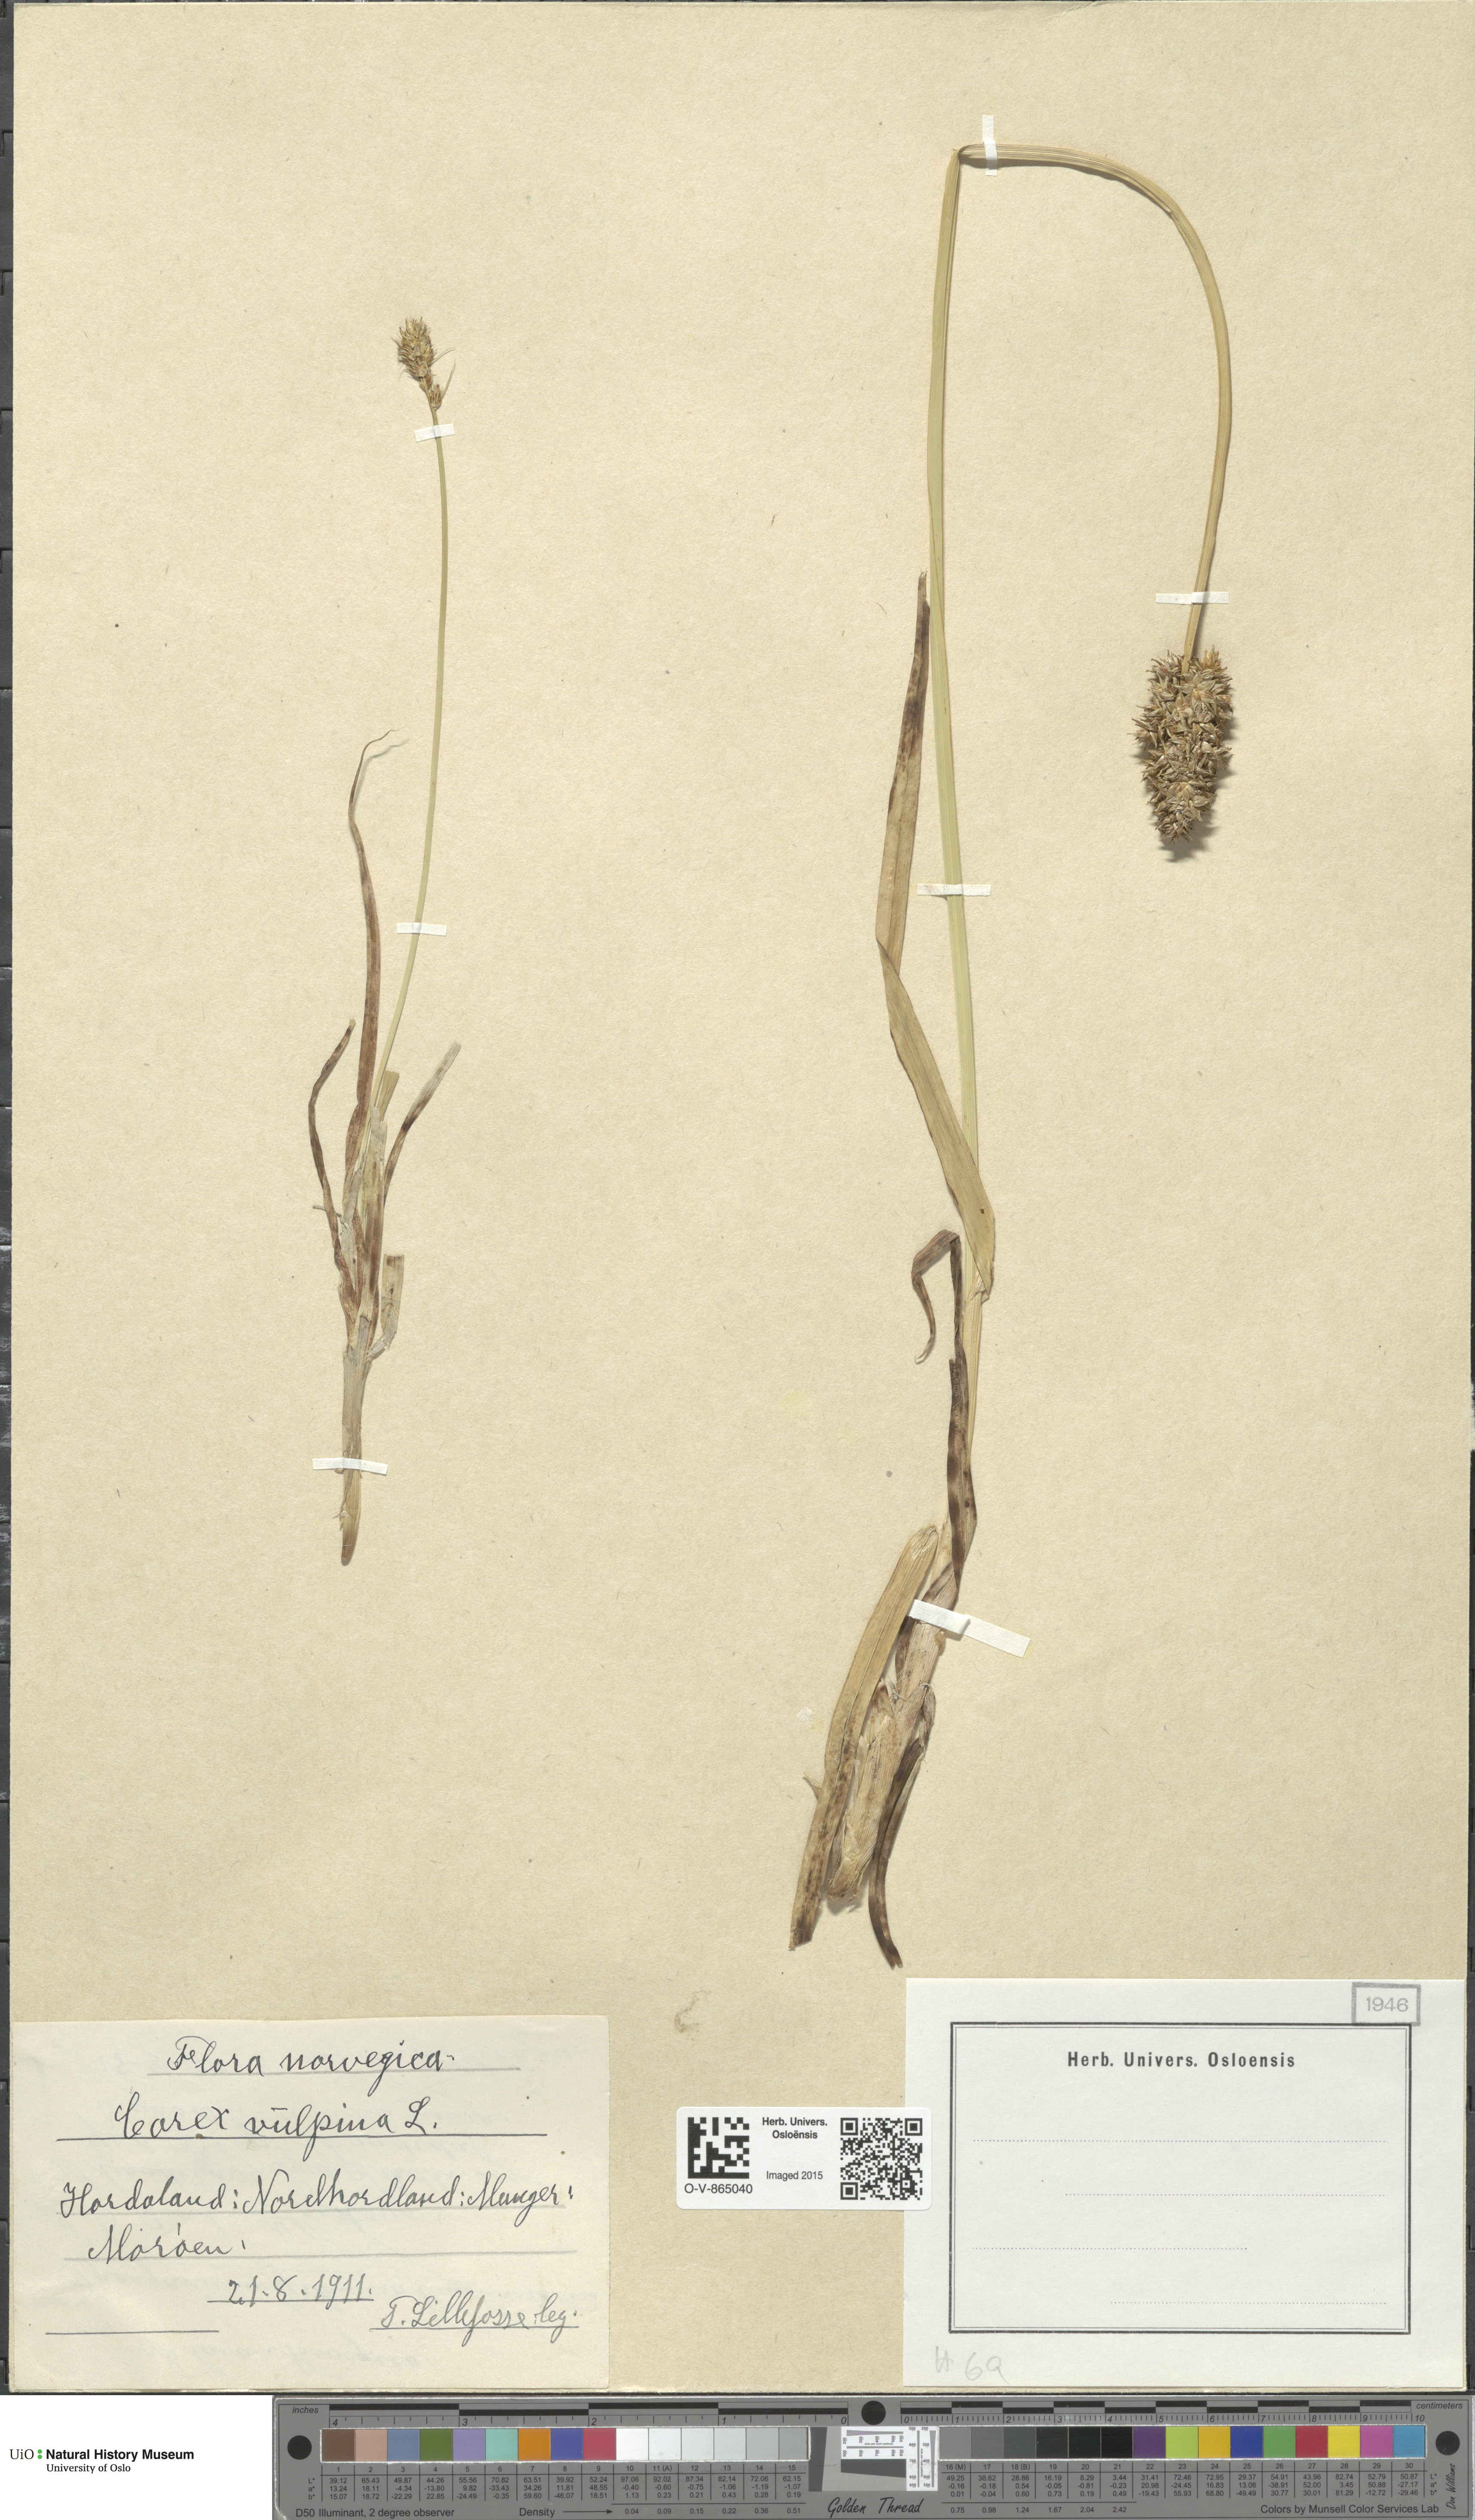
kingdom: Plantae
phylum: Tracheophyta
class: Liliopsida
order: Poales
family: Cyperaceae
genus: Carex
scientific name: Carex otrubae
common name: False fox-sedge
